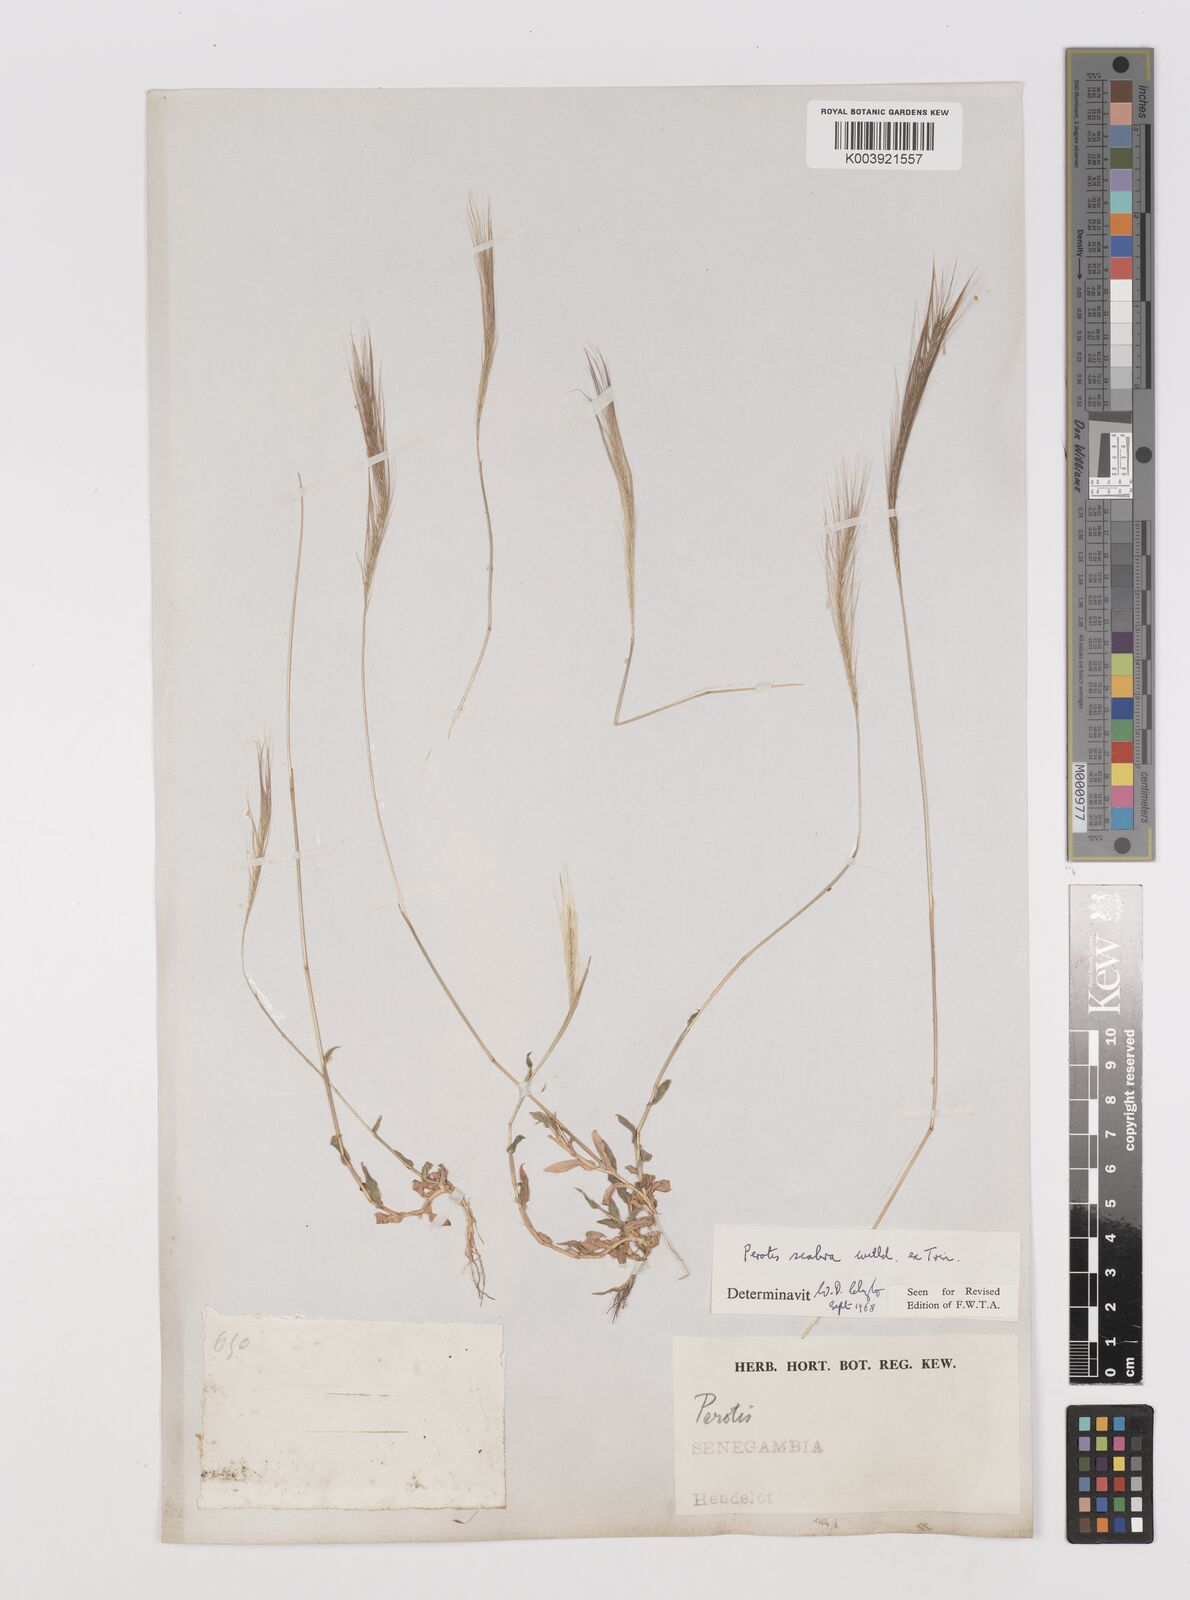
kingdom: Plantae
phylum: Tracheophyta
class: Liliopsida
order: Poales
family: Poaceae
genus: Perotis
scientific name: Perotis scabra
